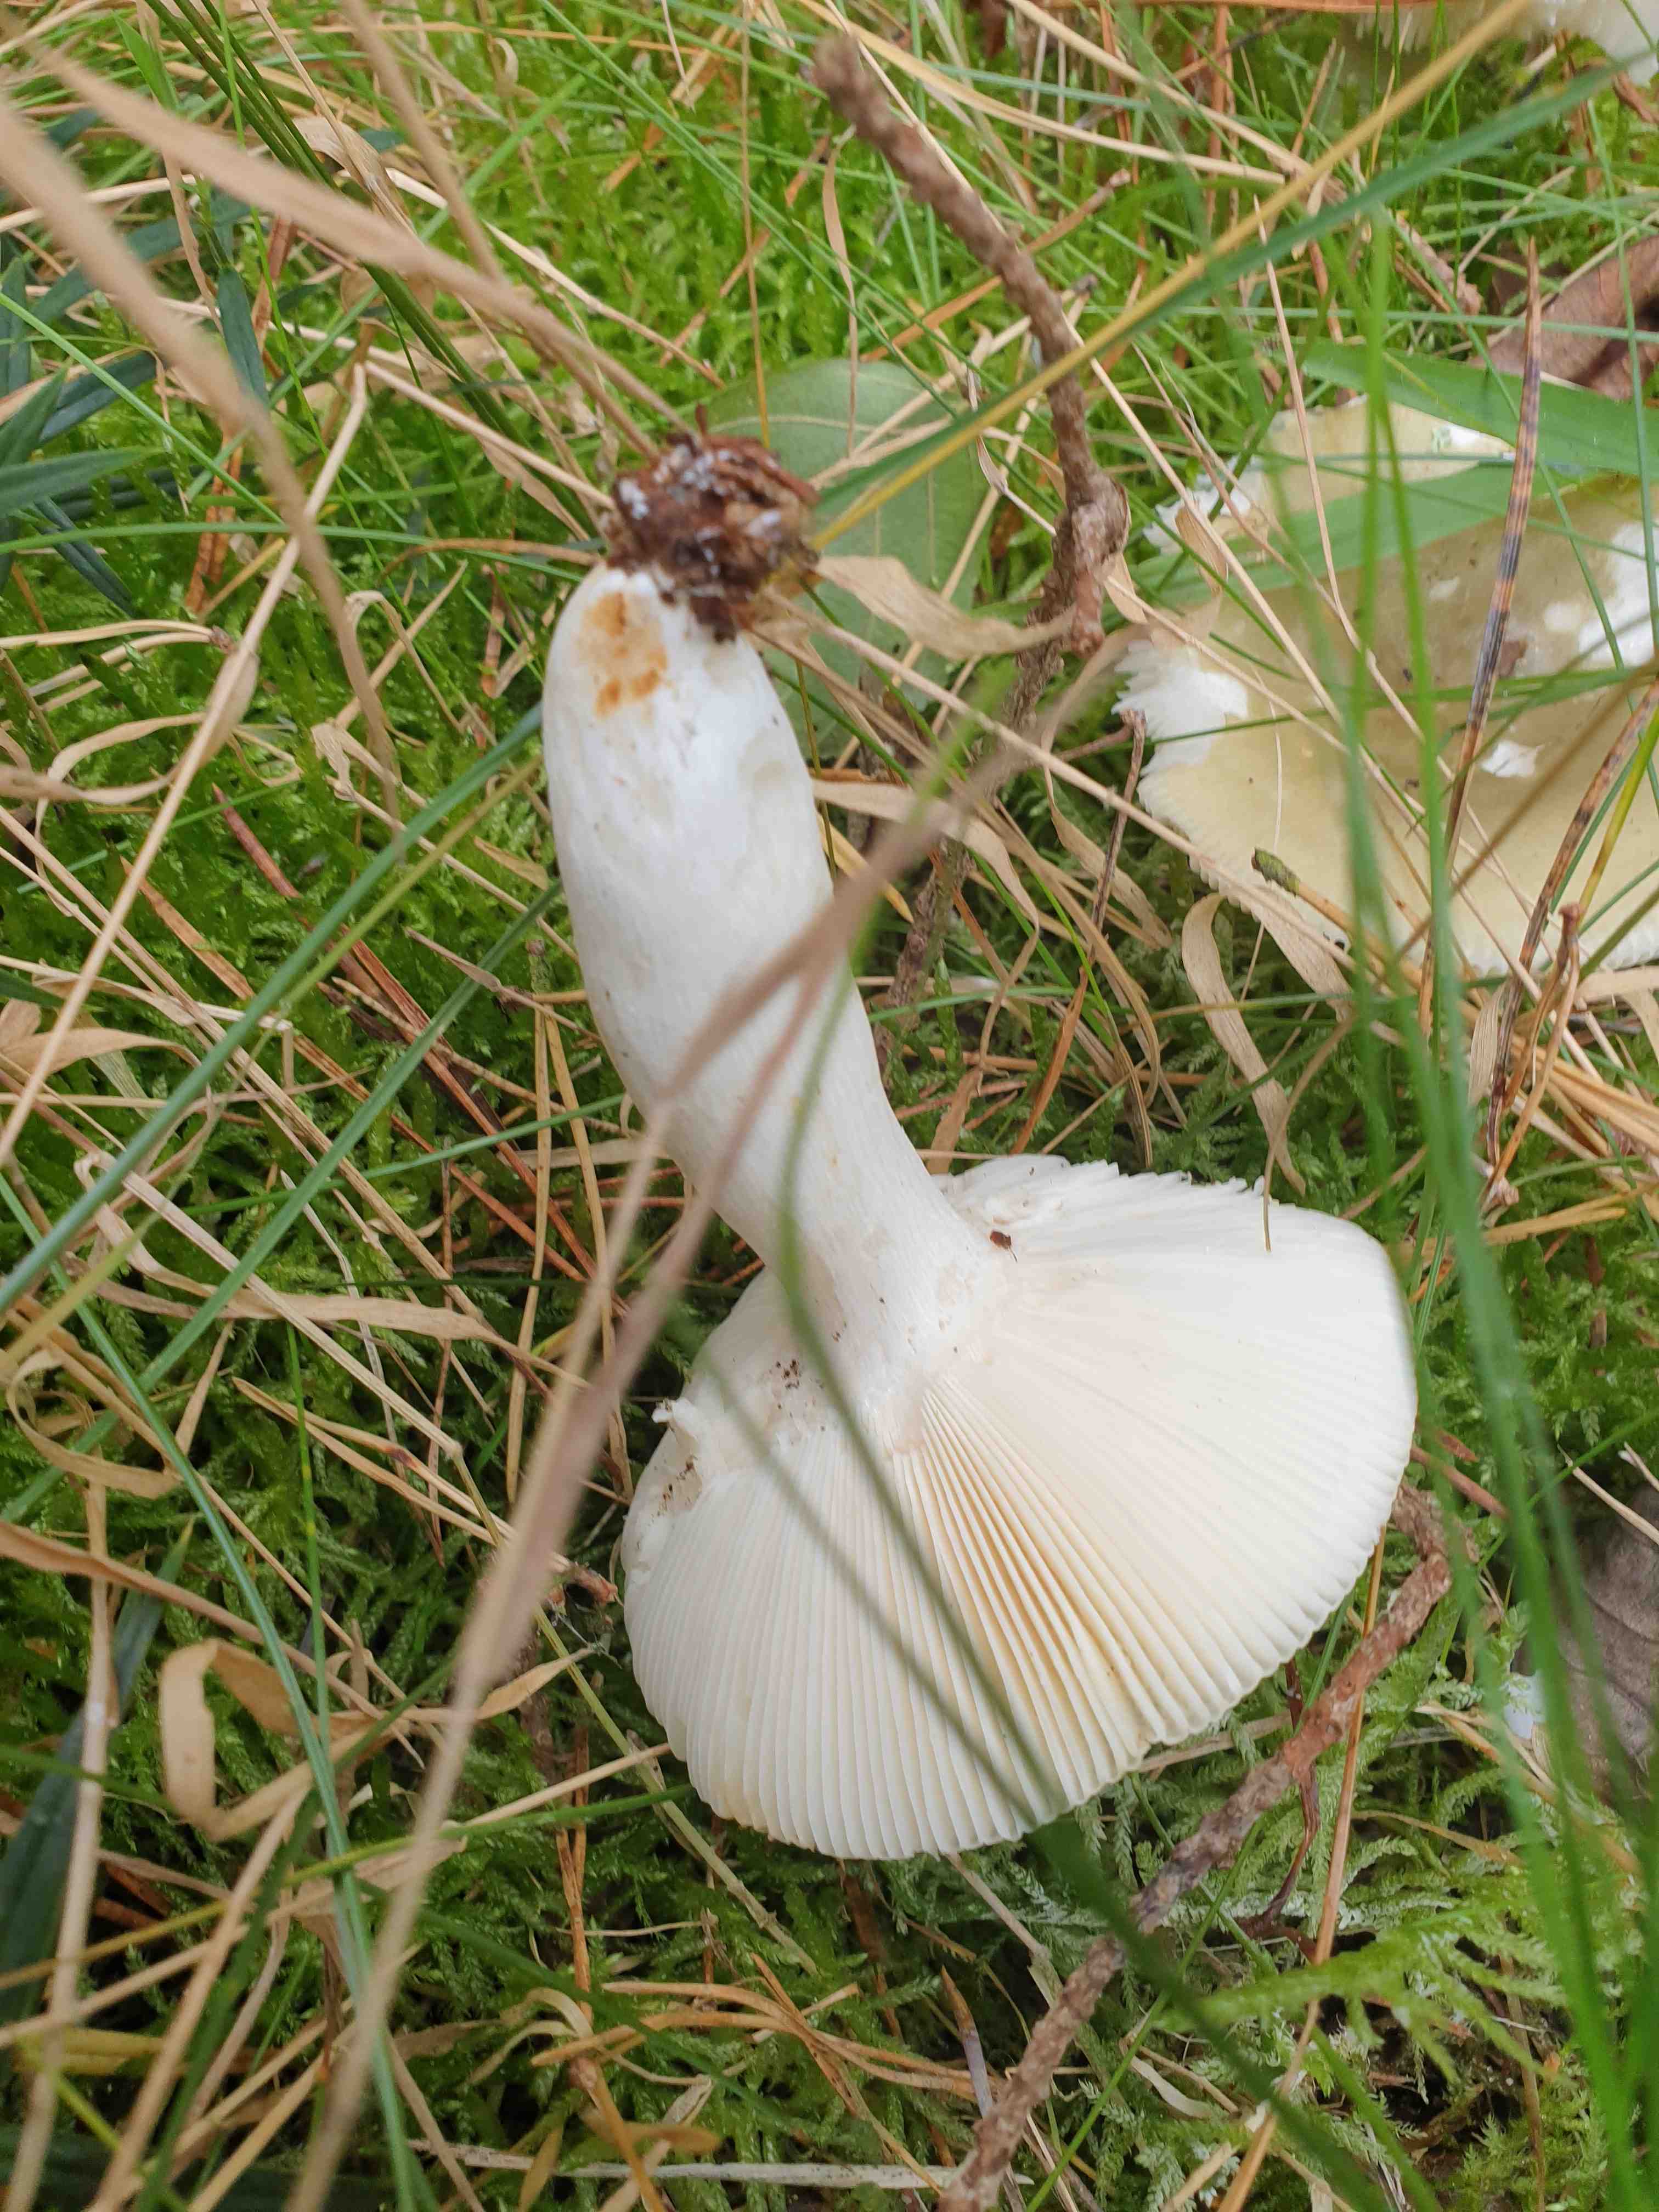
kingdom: Fungi
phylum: Basidiomycota
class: Agaricomycetes
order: Russulales
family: Russulaceae
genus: Russula
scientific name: Russula aeruginea
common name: græsgrøn skørhat
